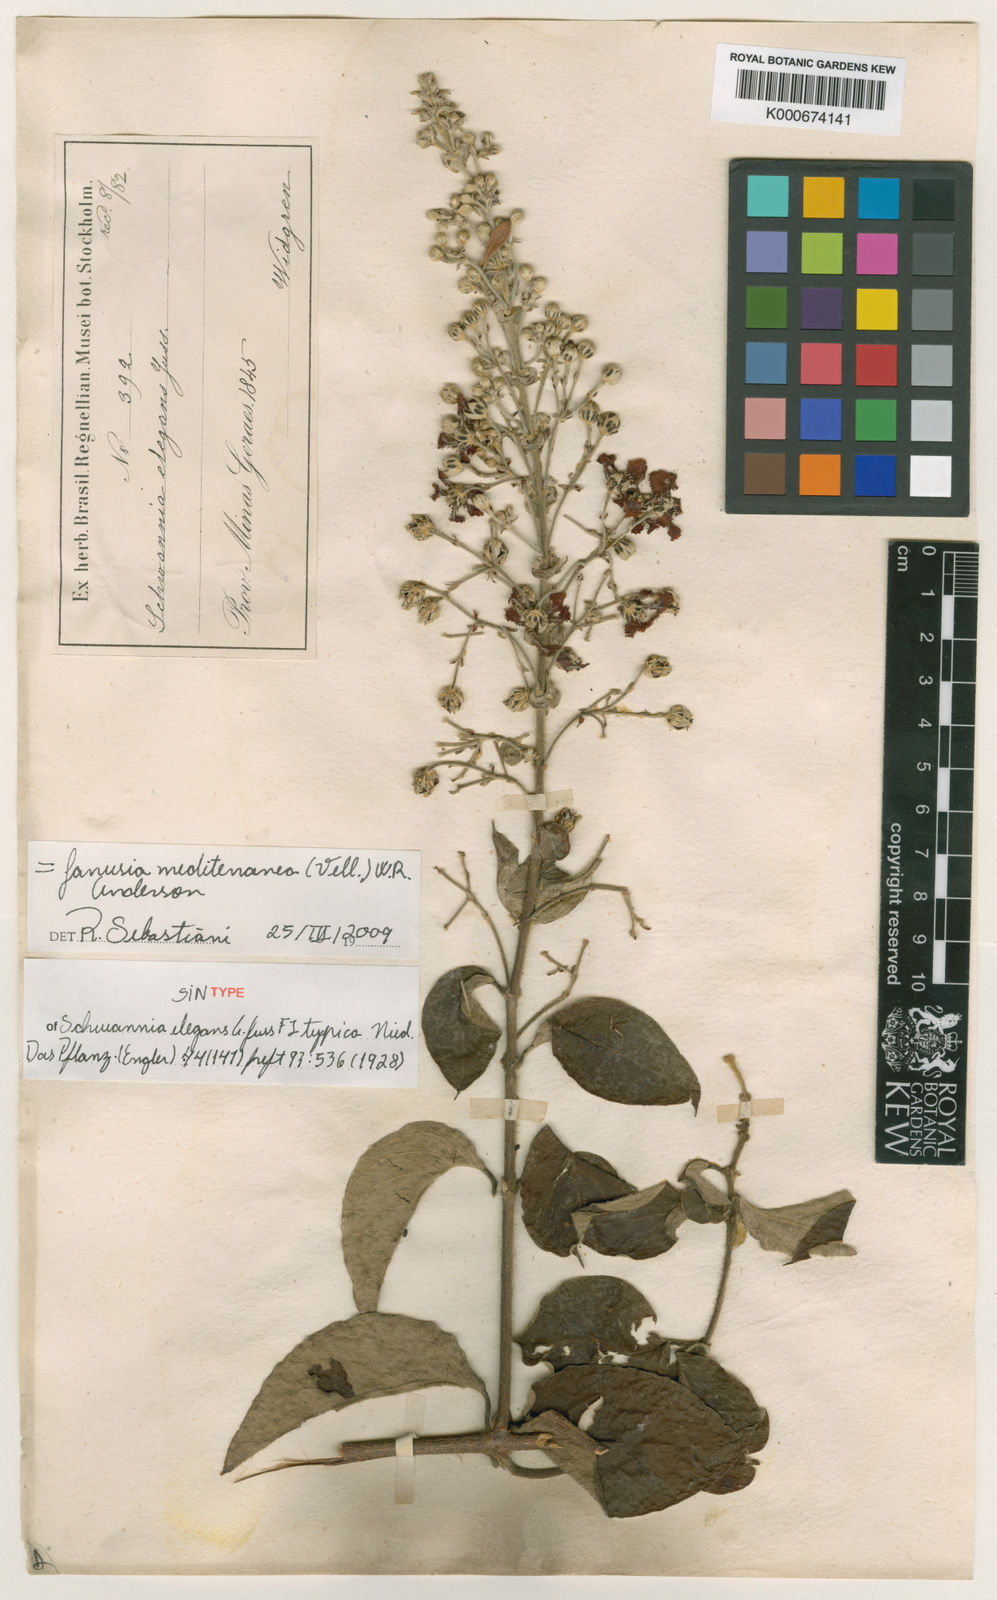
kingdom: Plantae
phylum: Tracheophyta
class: Magnoliopsida
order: Malpighiales
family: Malpighiaceae
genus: Janusia
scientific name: Janusia mediterranea
